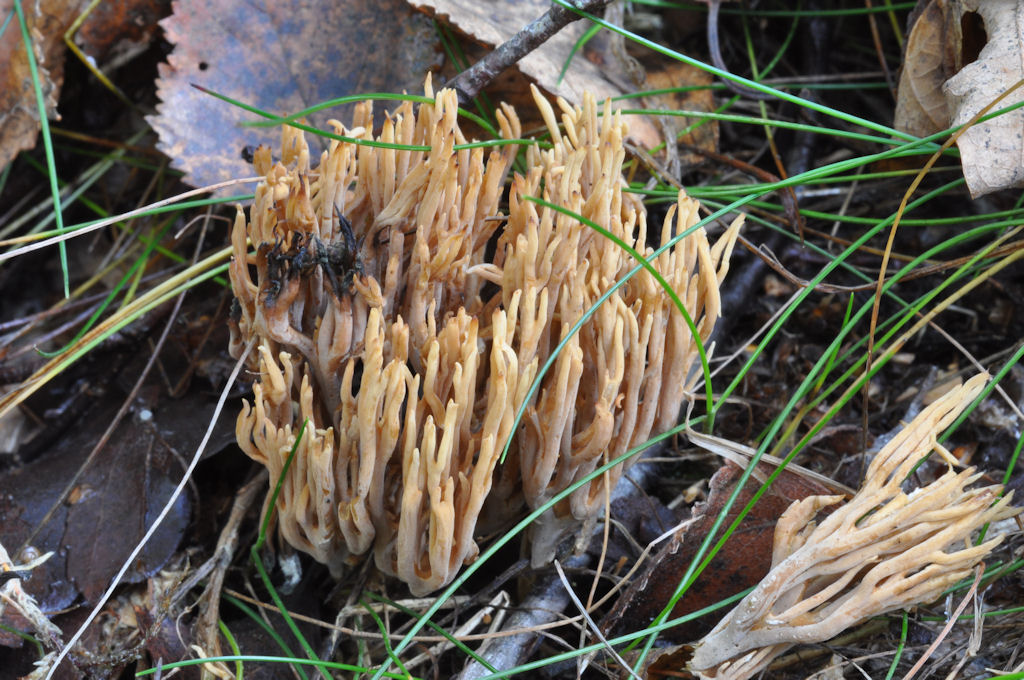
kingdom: Fungi
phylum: Basidiomycota
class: Agaricomycetes
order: Gomphales
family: Gomphaceae
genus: Ramaria
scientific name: Ramaria stricta
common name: rank koralsvamp
